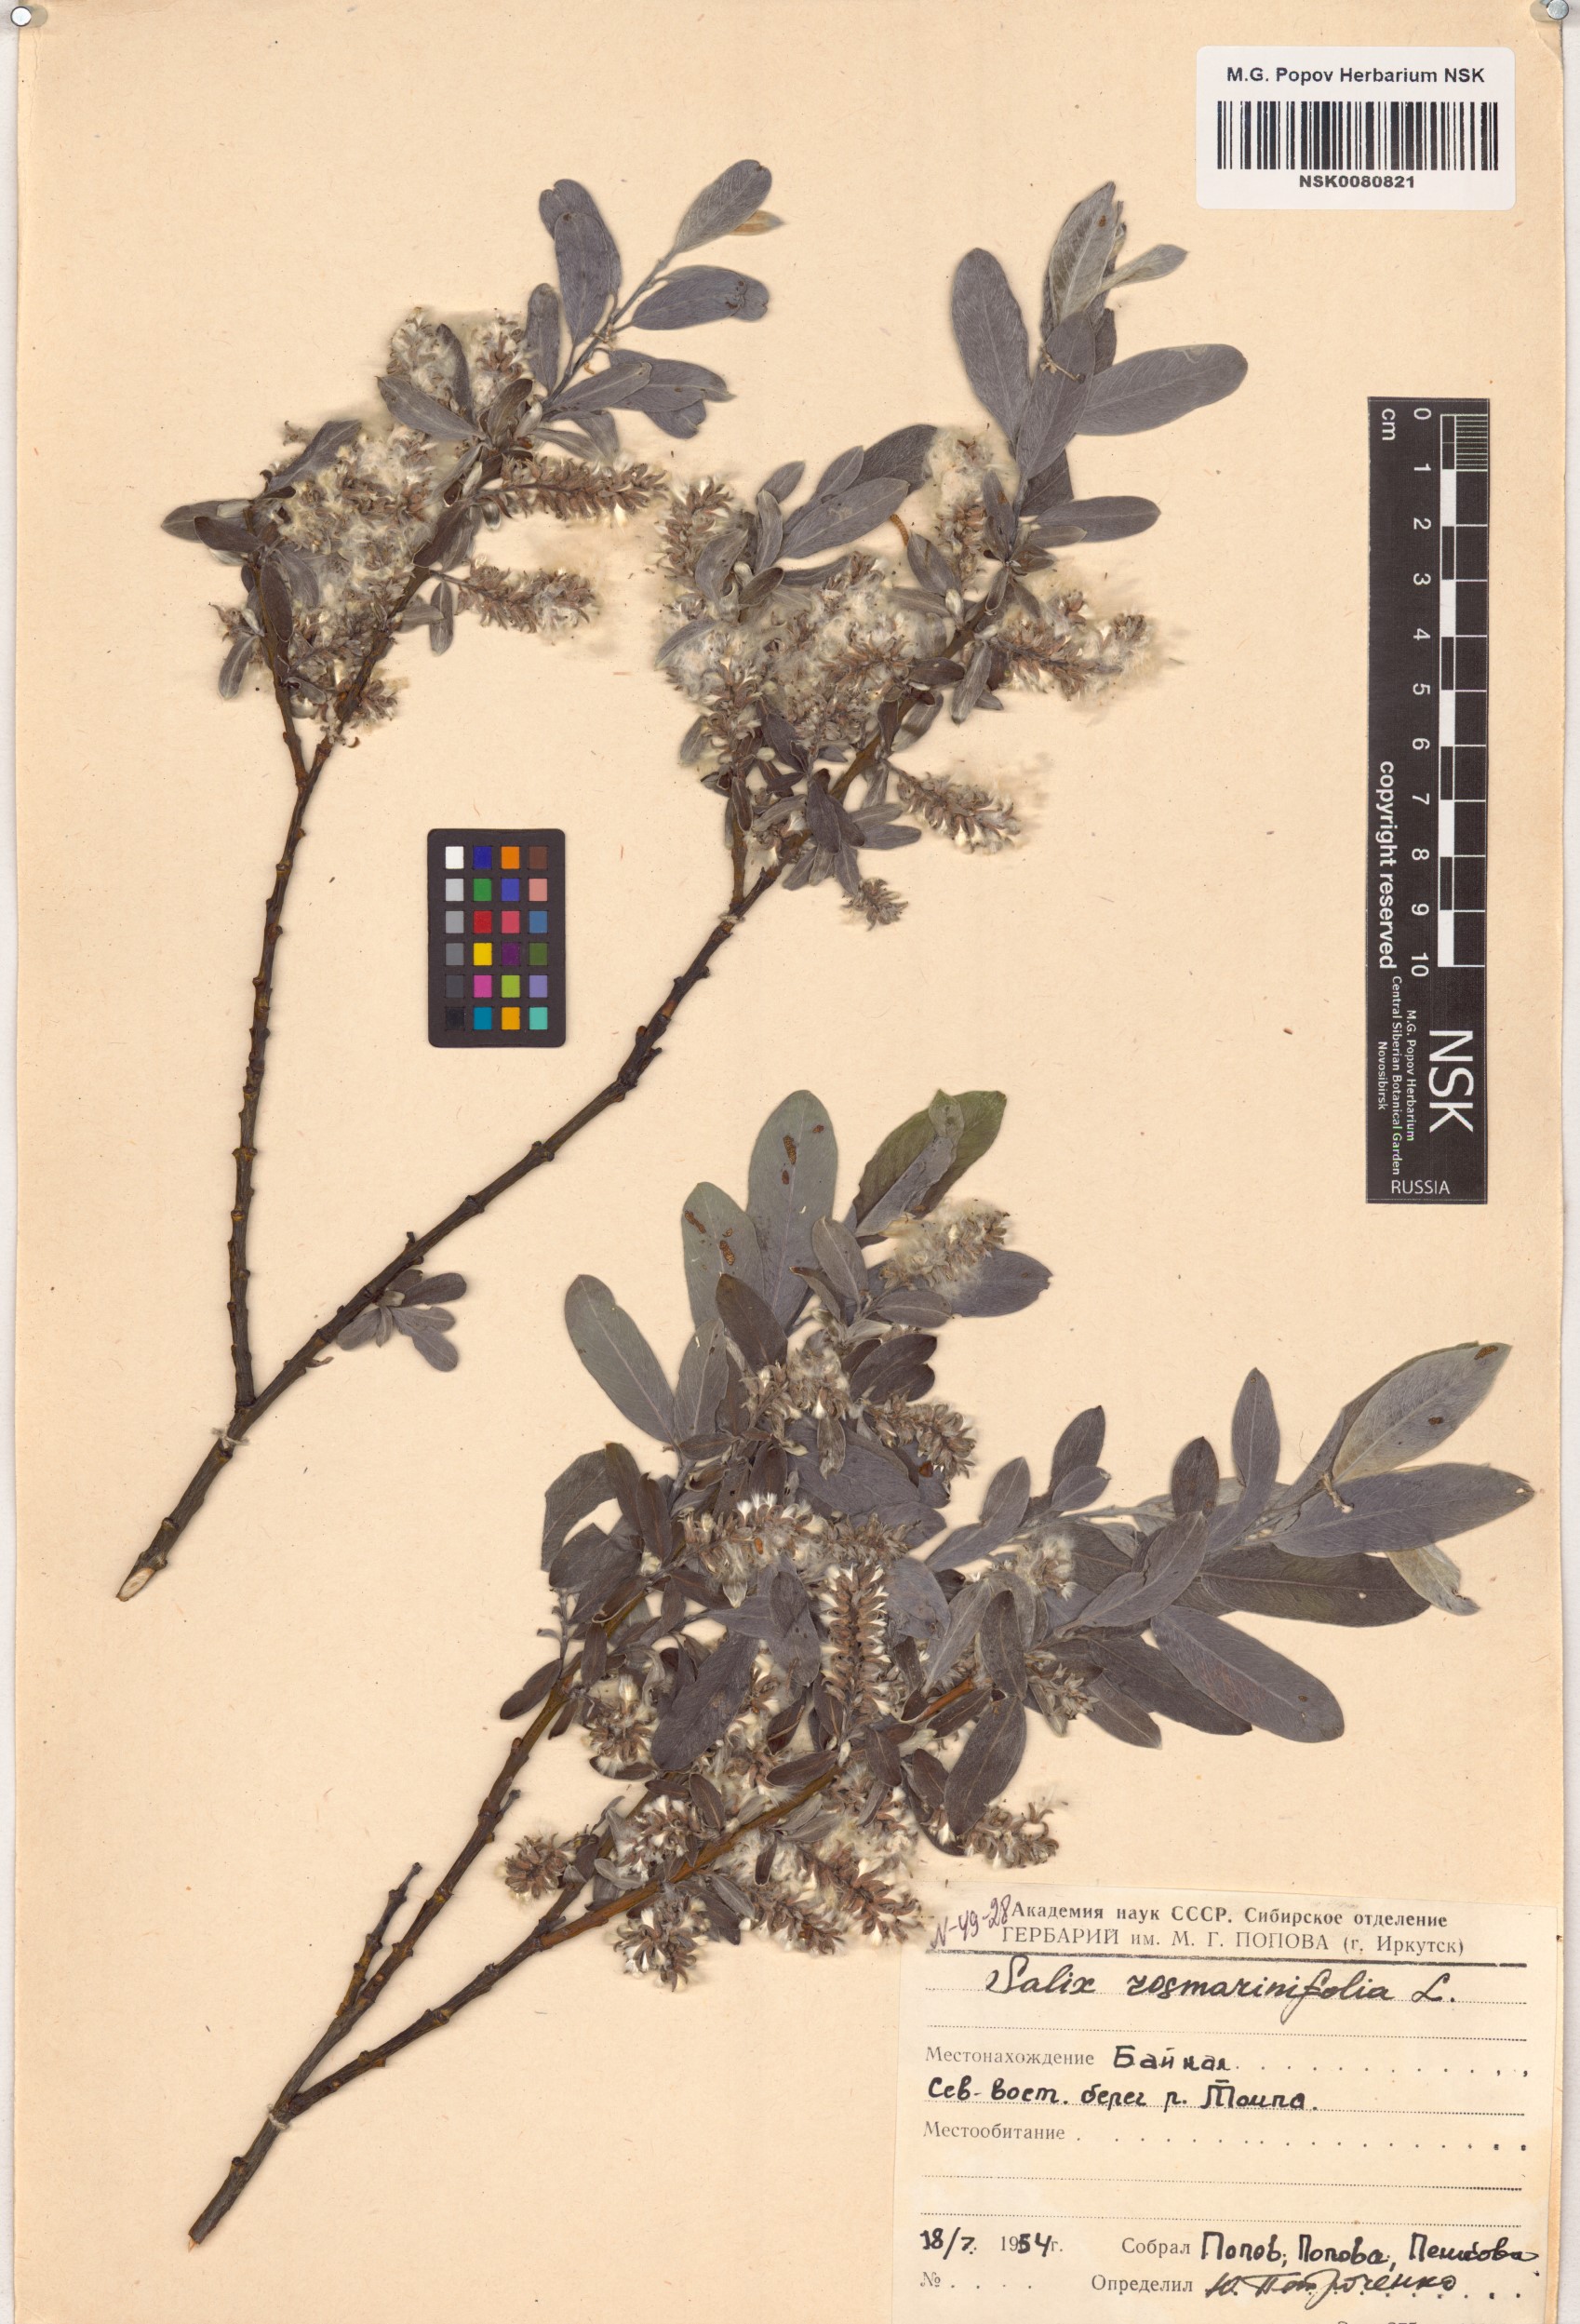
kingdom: Plantae
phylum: Tracheophyta
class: Magnoliopsida
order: Malpighiales
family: Salicaceae
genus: Salix
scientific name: Salix rosmarinifolia
